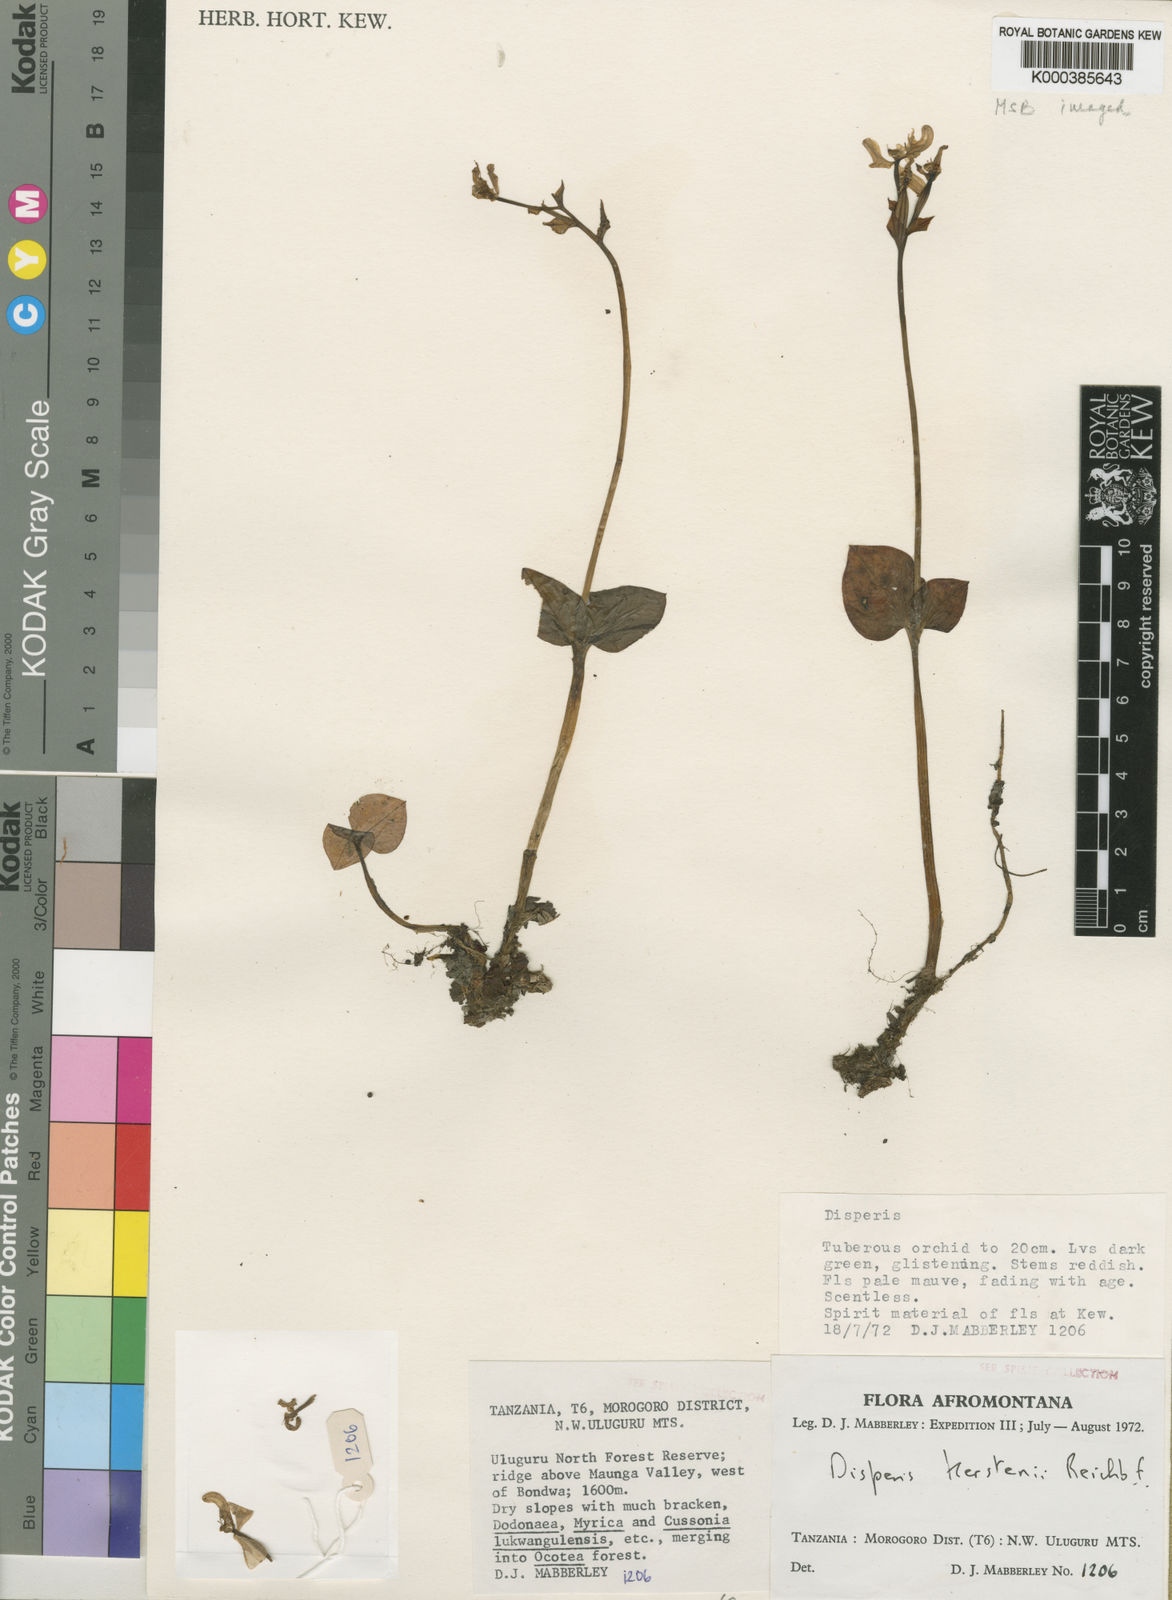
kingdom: Plantae
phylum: Tracheophyta
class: Liliopsida
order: Asparagales
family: Orchidaceae
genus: Disperis
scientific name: Disperis kerstenii
